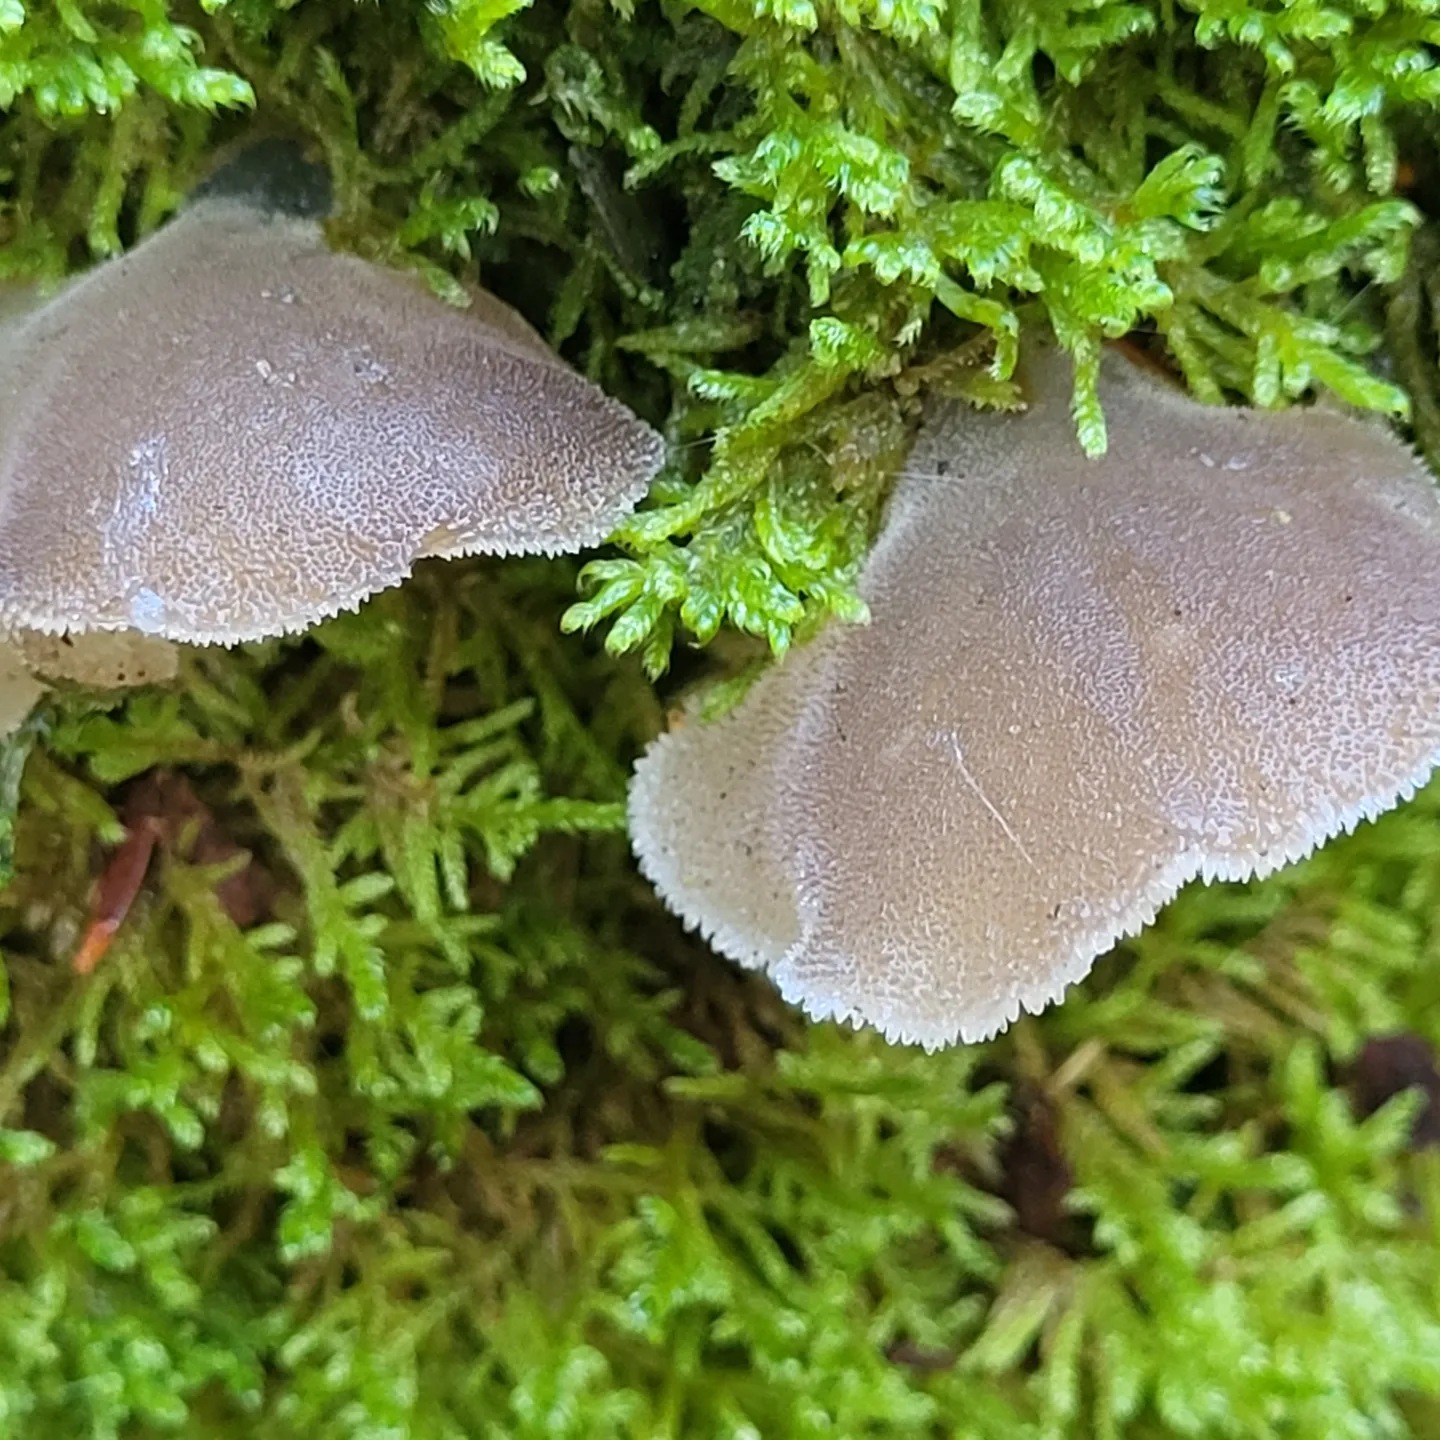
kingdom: Fungi
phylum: Basidiomycota
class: Agaricomycetes
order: Auriculariales
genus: Pseudohydnum
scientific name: Pseudohydnum gelatinosum
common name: bævretand
